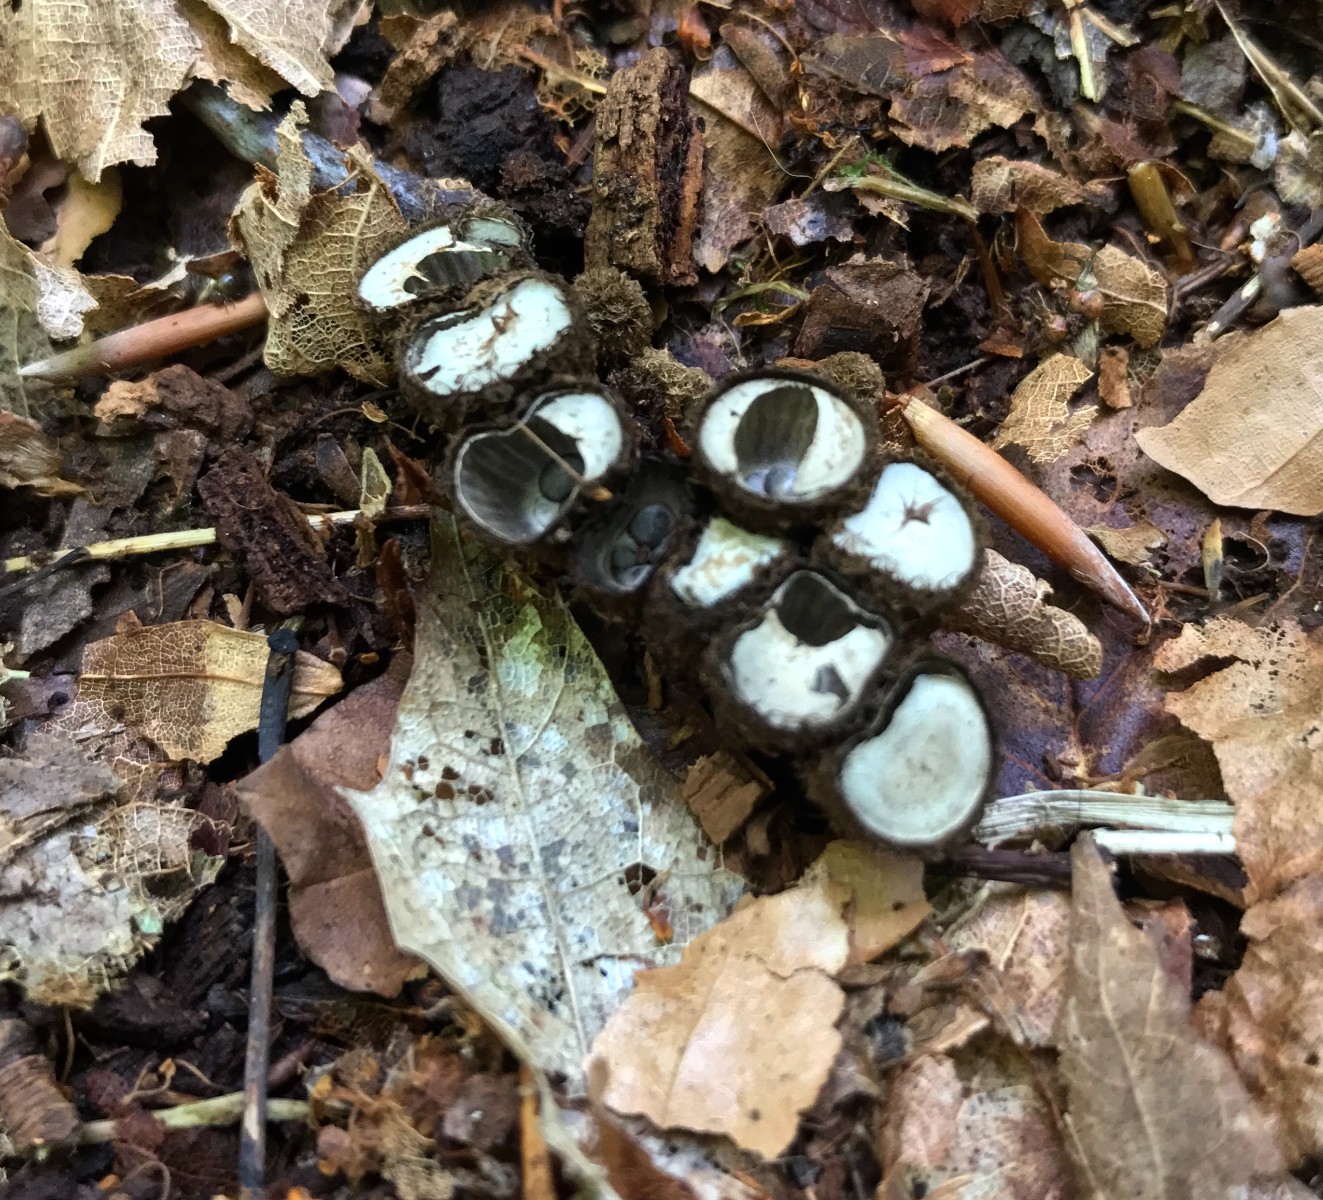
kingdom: Fungi
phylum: Basidiomycota
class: Agaricomycetes
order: Agaricales
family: Agaricaceae
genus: Cyathus
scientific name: Cyathus striatus
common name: stribet redesvamp
